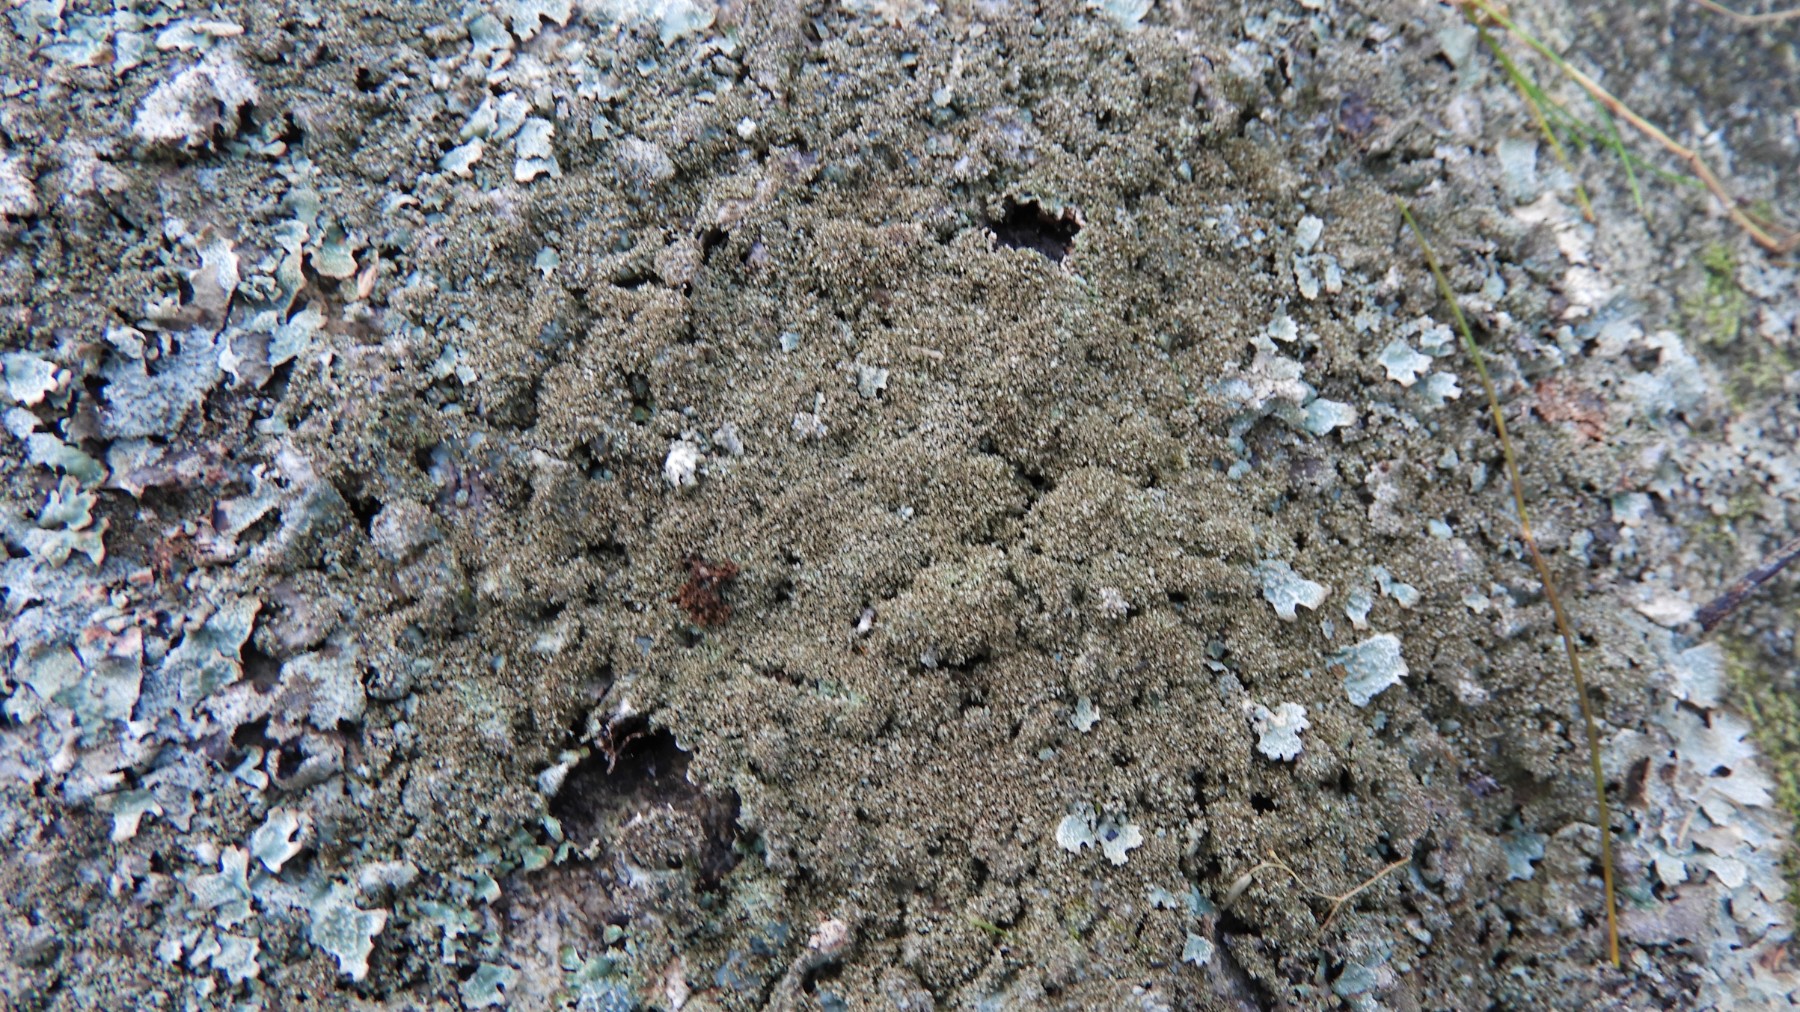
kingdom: Fungi
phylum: Ascomycota
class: Lecanoromycetes
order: Lecanorales
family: Parmeliaceae
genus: Parmelia
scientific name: Parmelia
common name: farve-skållav
